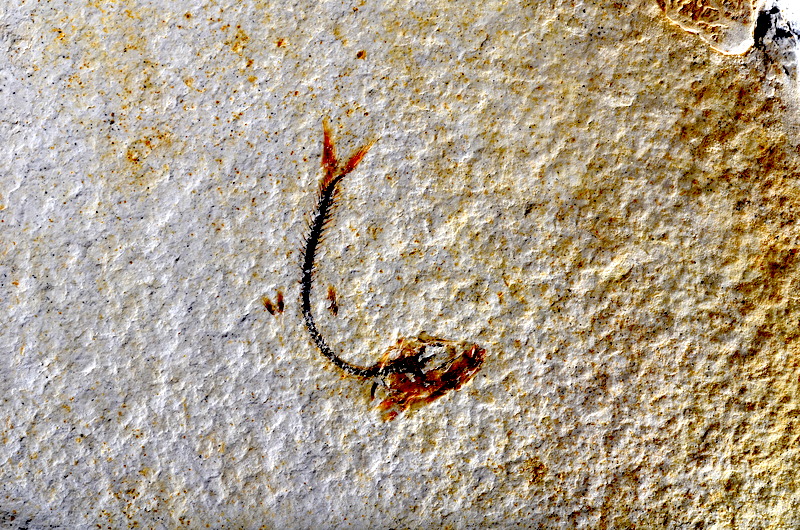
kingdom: Animalia
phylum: Chordata
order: Salmoniformes
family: Orthogonikleithridae
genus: Orthogonikleithrus
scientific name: Orthogonikleithrus hoelli
